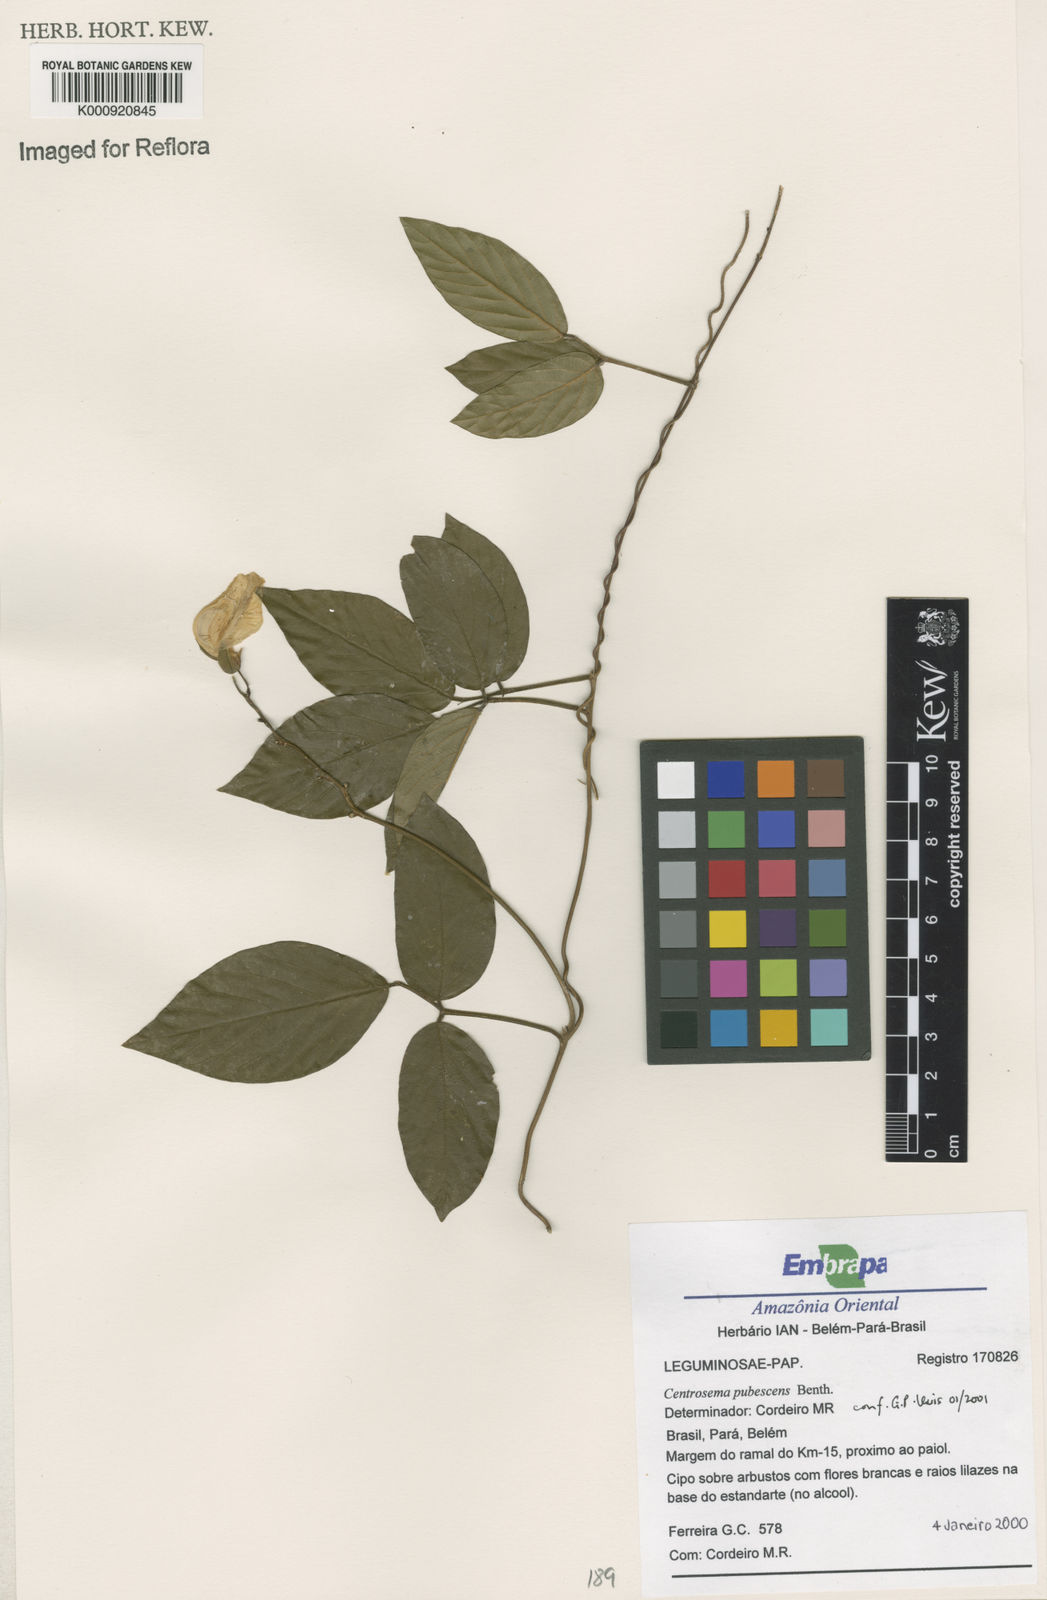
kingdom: Plantae
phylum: Tracheophyta
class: Magnoliopsida
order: Fabales
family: Fabaceae
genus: Centrosema
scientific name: Centrosema pubescens
